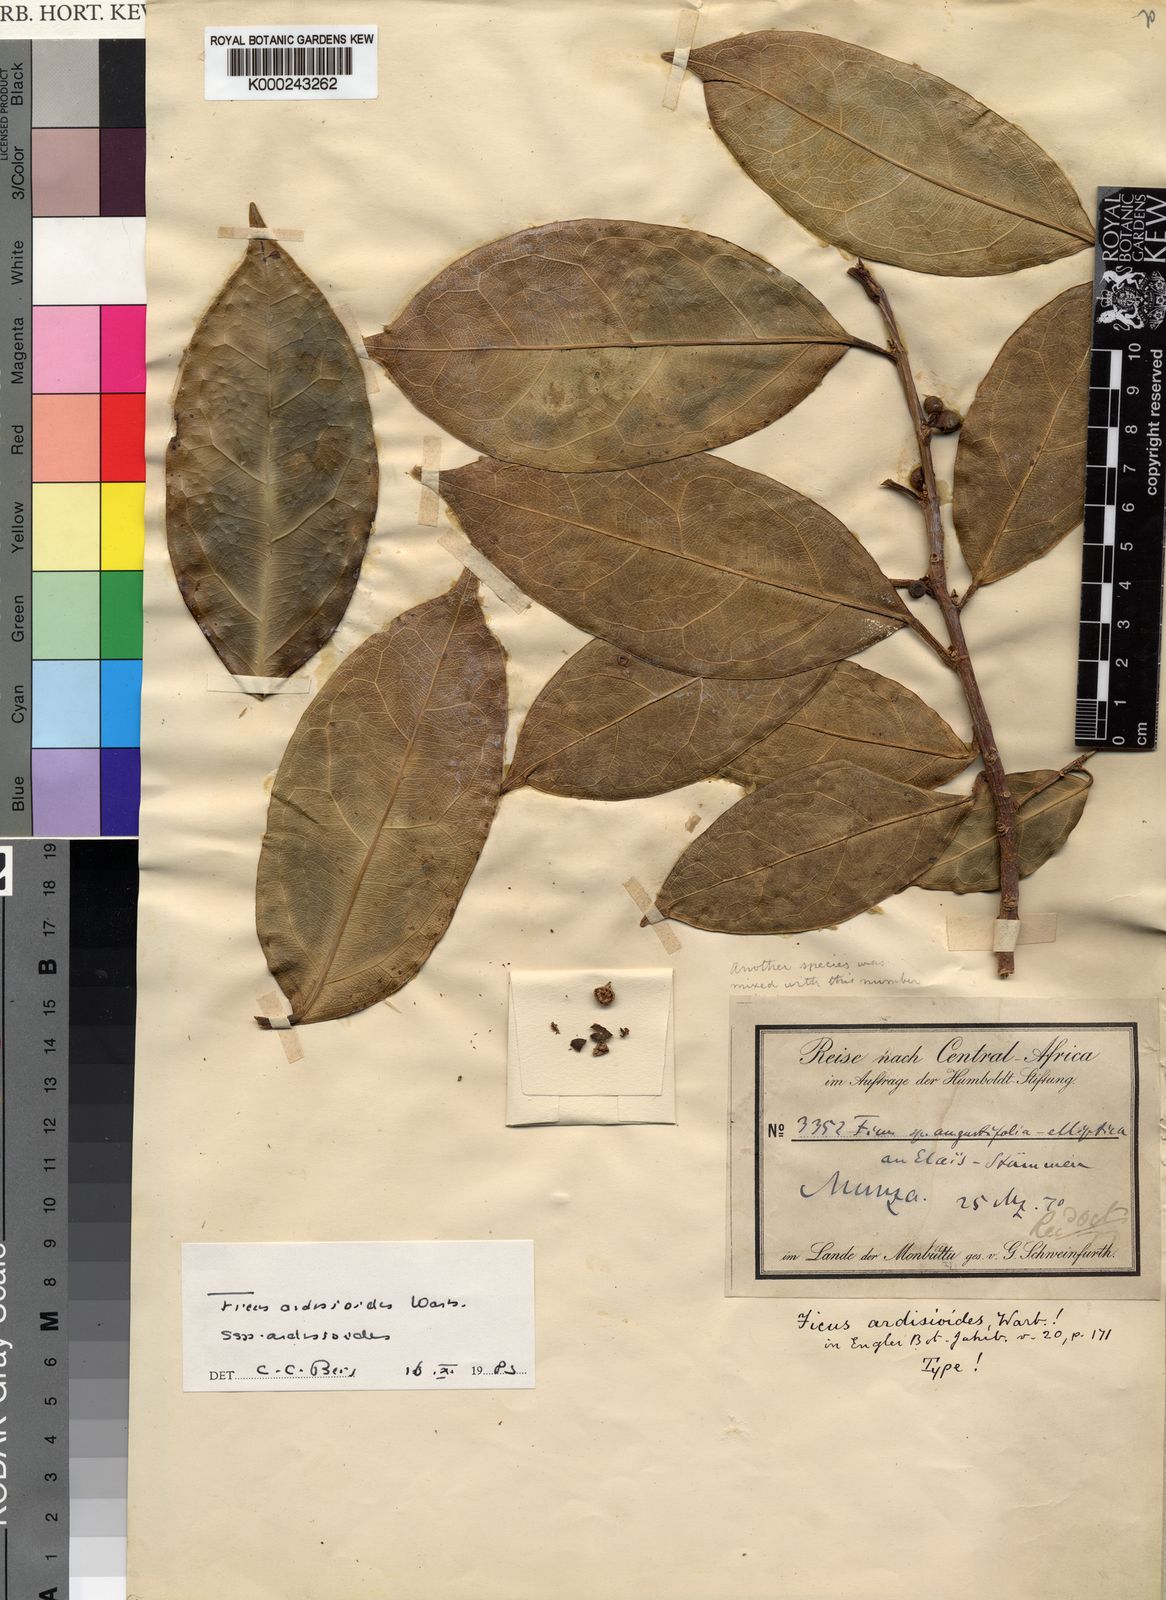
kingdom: Plantae
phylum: Tracheophyta
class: Magnoliopsida
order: Rosales
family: Moraceae
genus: Ficus
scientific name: Ficus ardisioides
